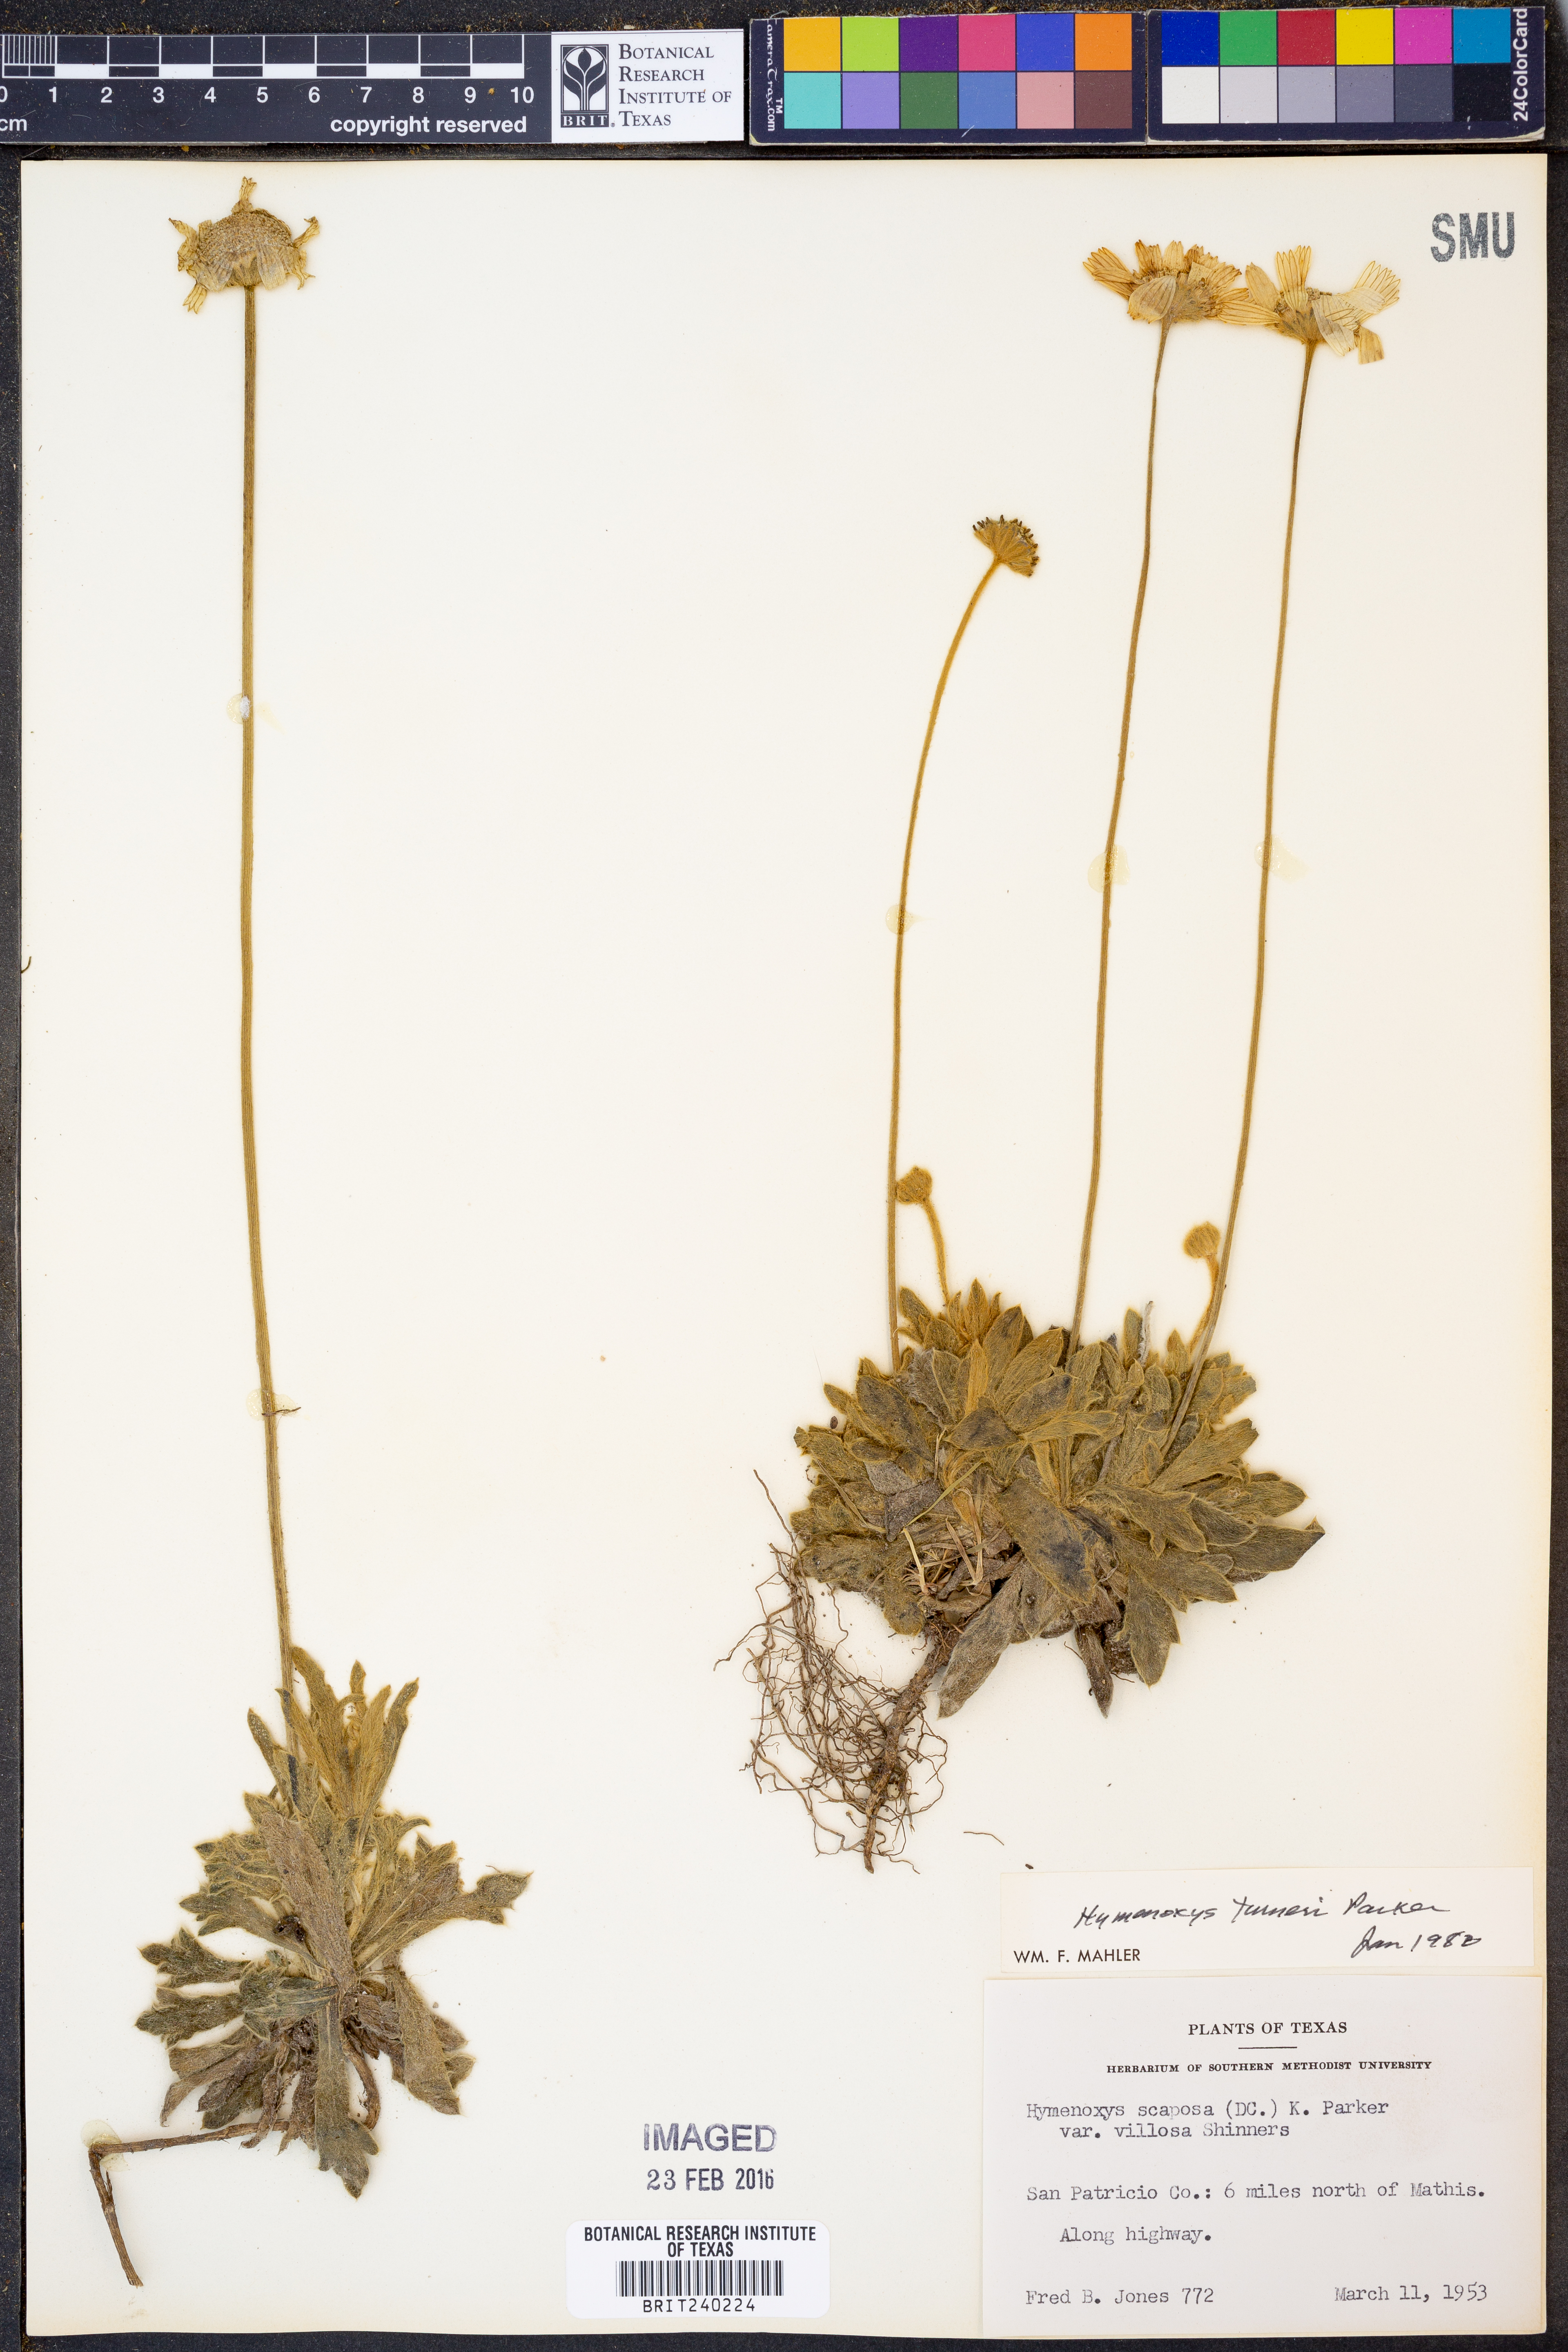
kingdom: Plantae
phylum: Tracheophyta
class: Magnoliopsida
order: Asterales
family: Asteraceae
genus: Tetraneuris
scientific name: Tetraneuris turneri
